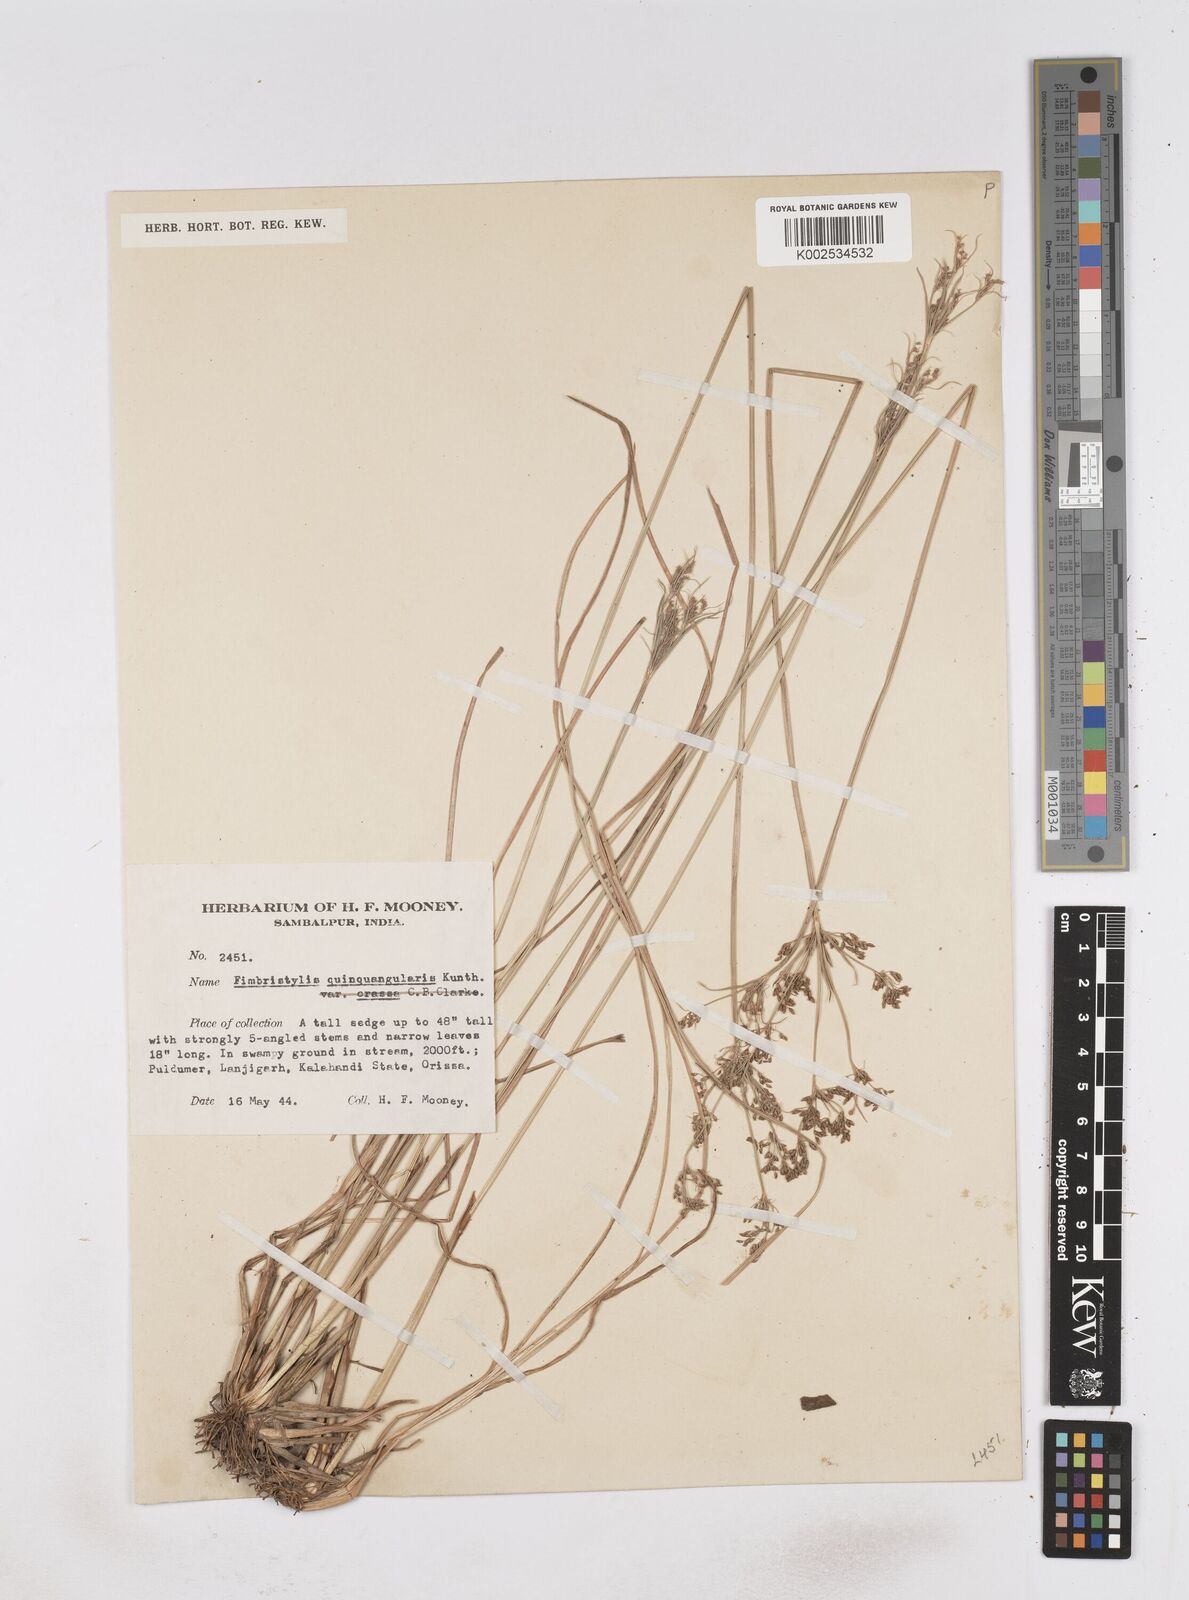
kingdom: Plantae
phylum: Tracheophyta
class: Liliopsida
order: Poales
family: Cyperaceae
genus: Fimbristylis
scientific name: Fimbristylis quinquangularis
